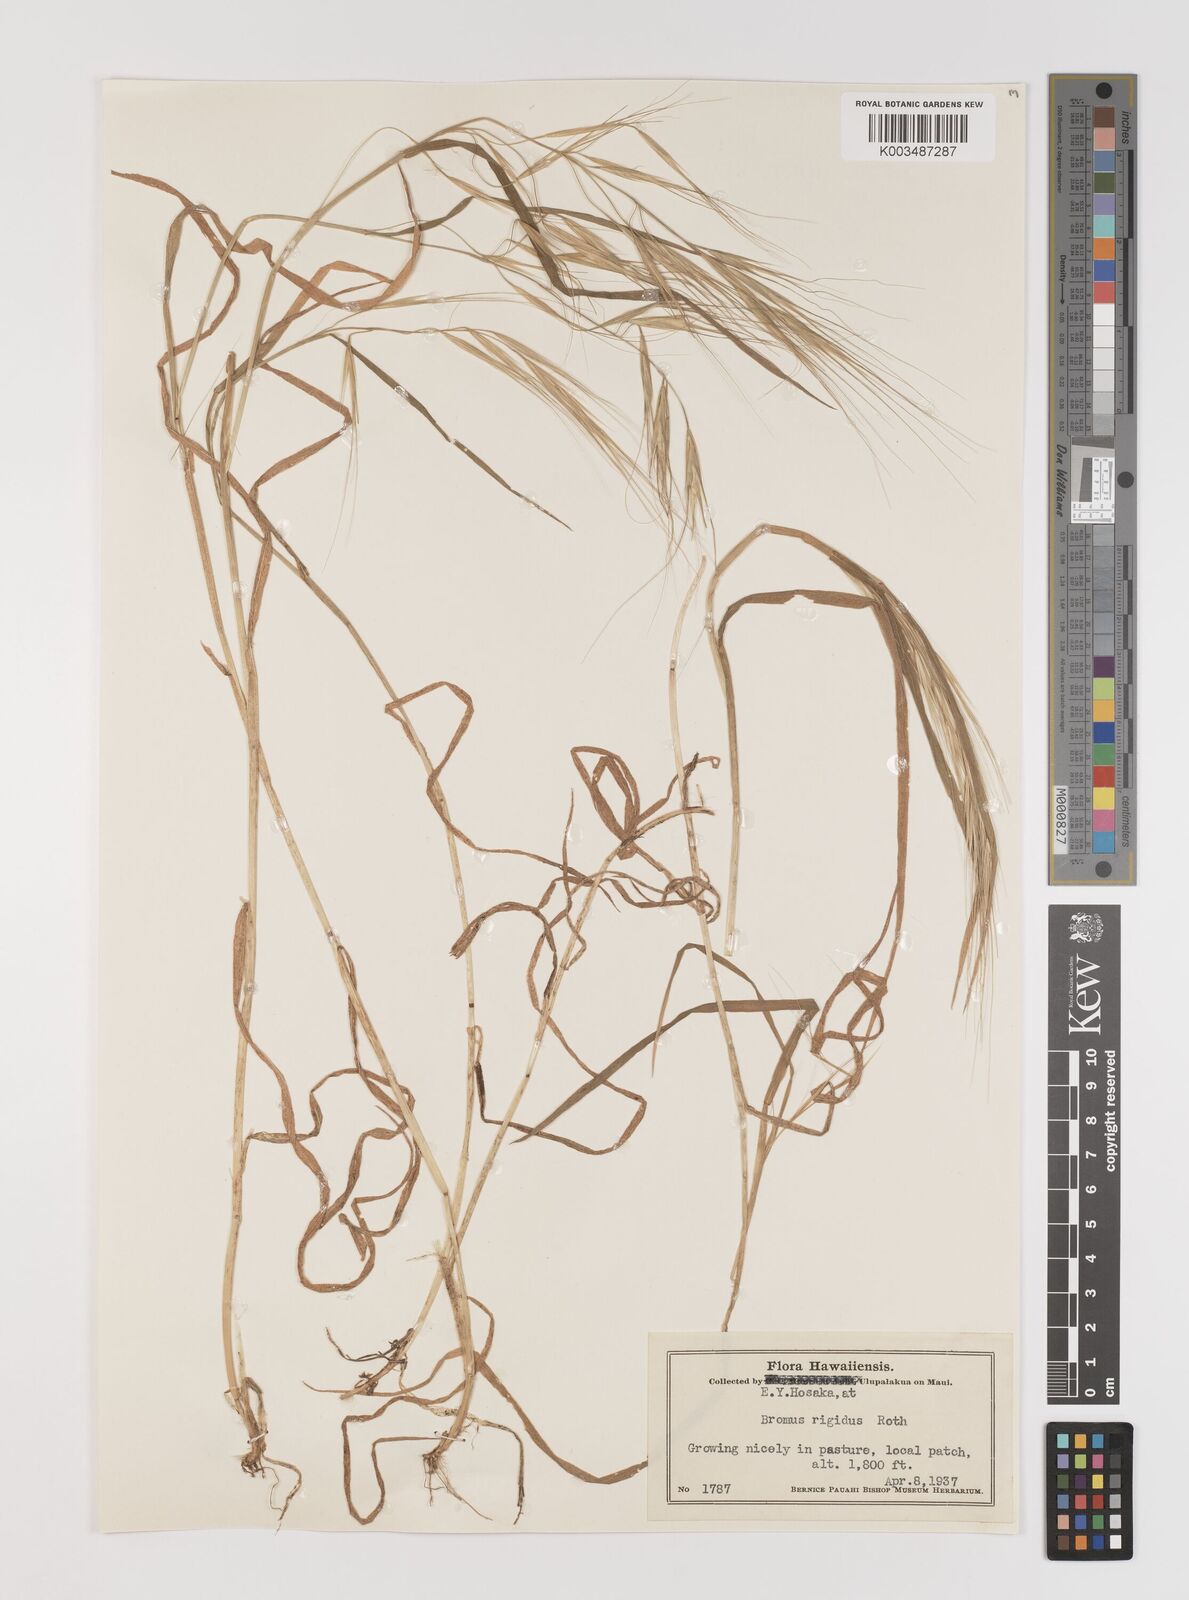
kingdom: Plantae
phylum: Tracheophyta
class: Liliopsida
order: Poales
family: Poaceae
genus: Bromus
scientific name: Bromus
